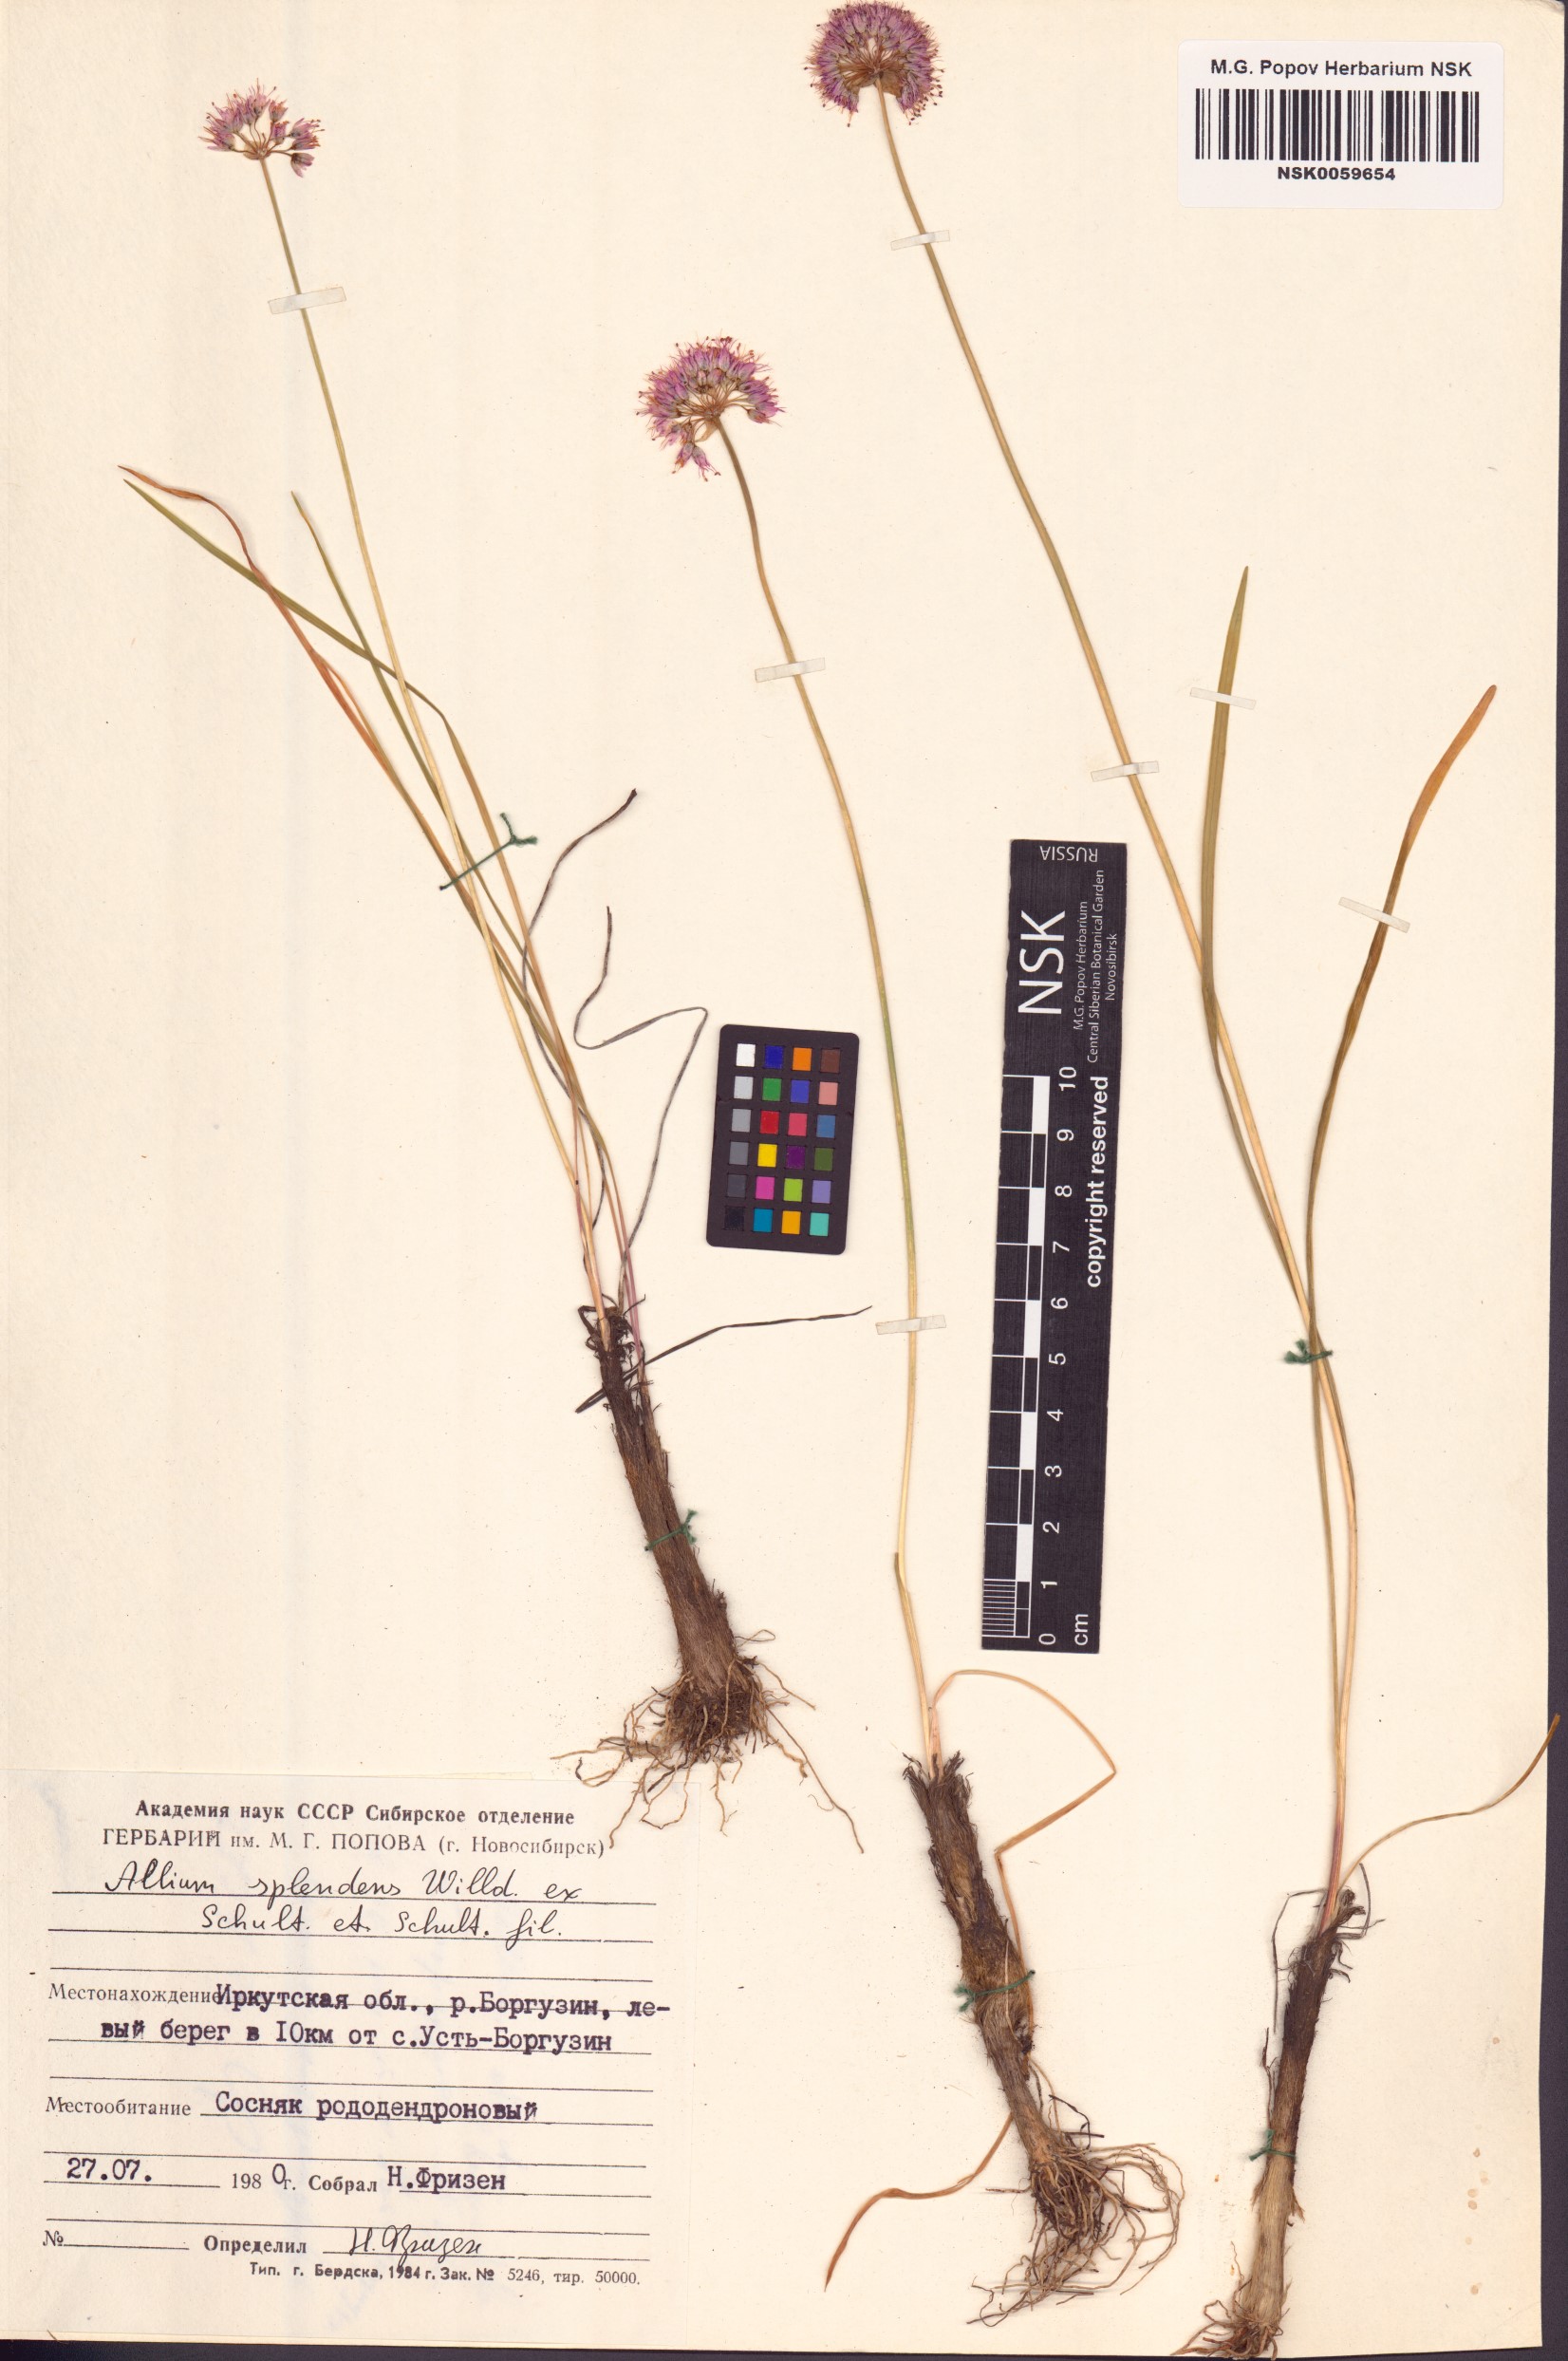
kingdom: Plantae
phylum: Tracheophyta
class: Liliopsida
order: Asparagales
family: Amaryllidaceae
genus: Allium
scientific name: Allium splendens
